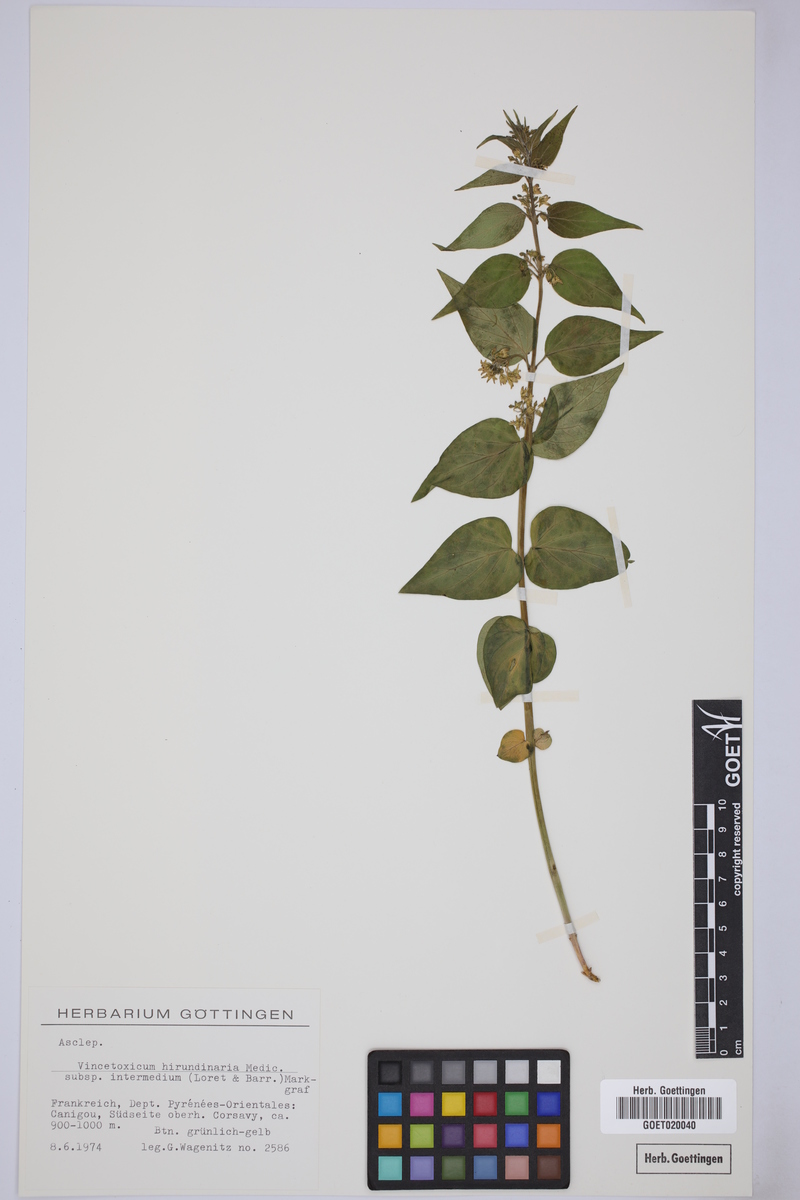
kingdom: Plantae
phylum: Tracheophyta
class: Magnoliopsida
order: Gentianales
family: Apocynaceae
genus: Vincetoxicum
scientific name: Vincetoxicum hirundinaria
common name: White swallowwort
